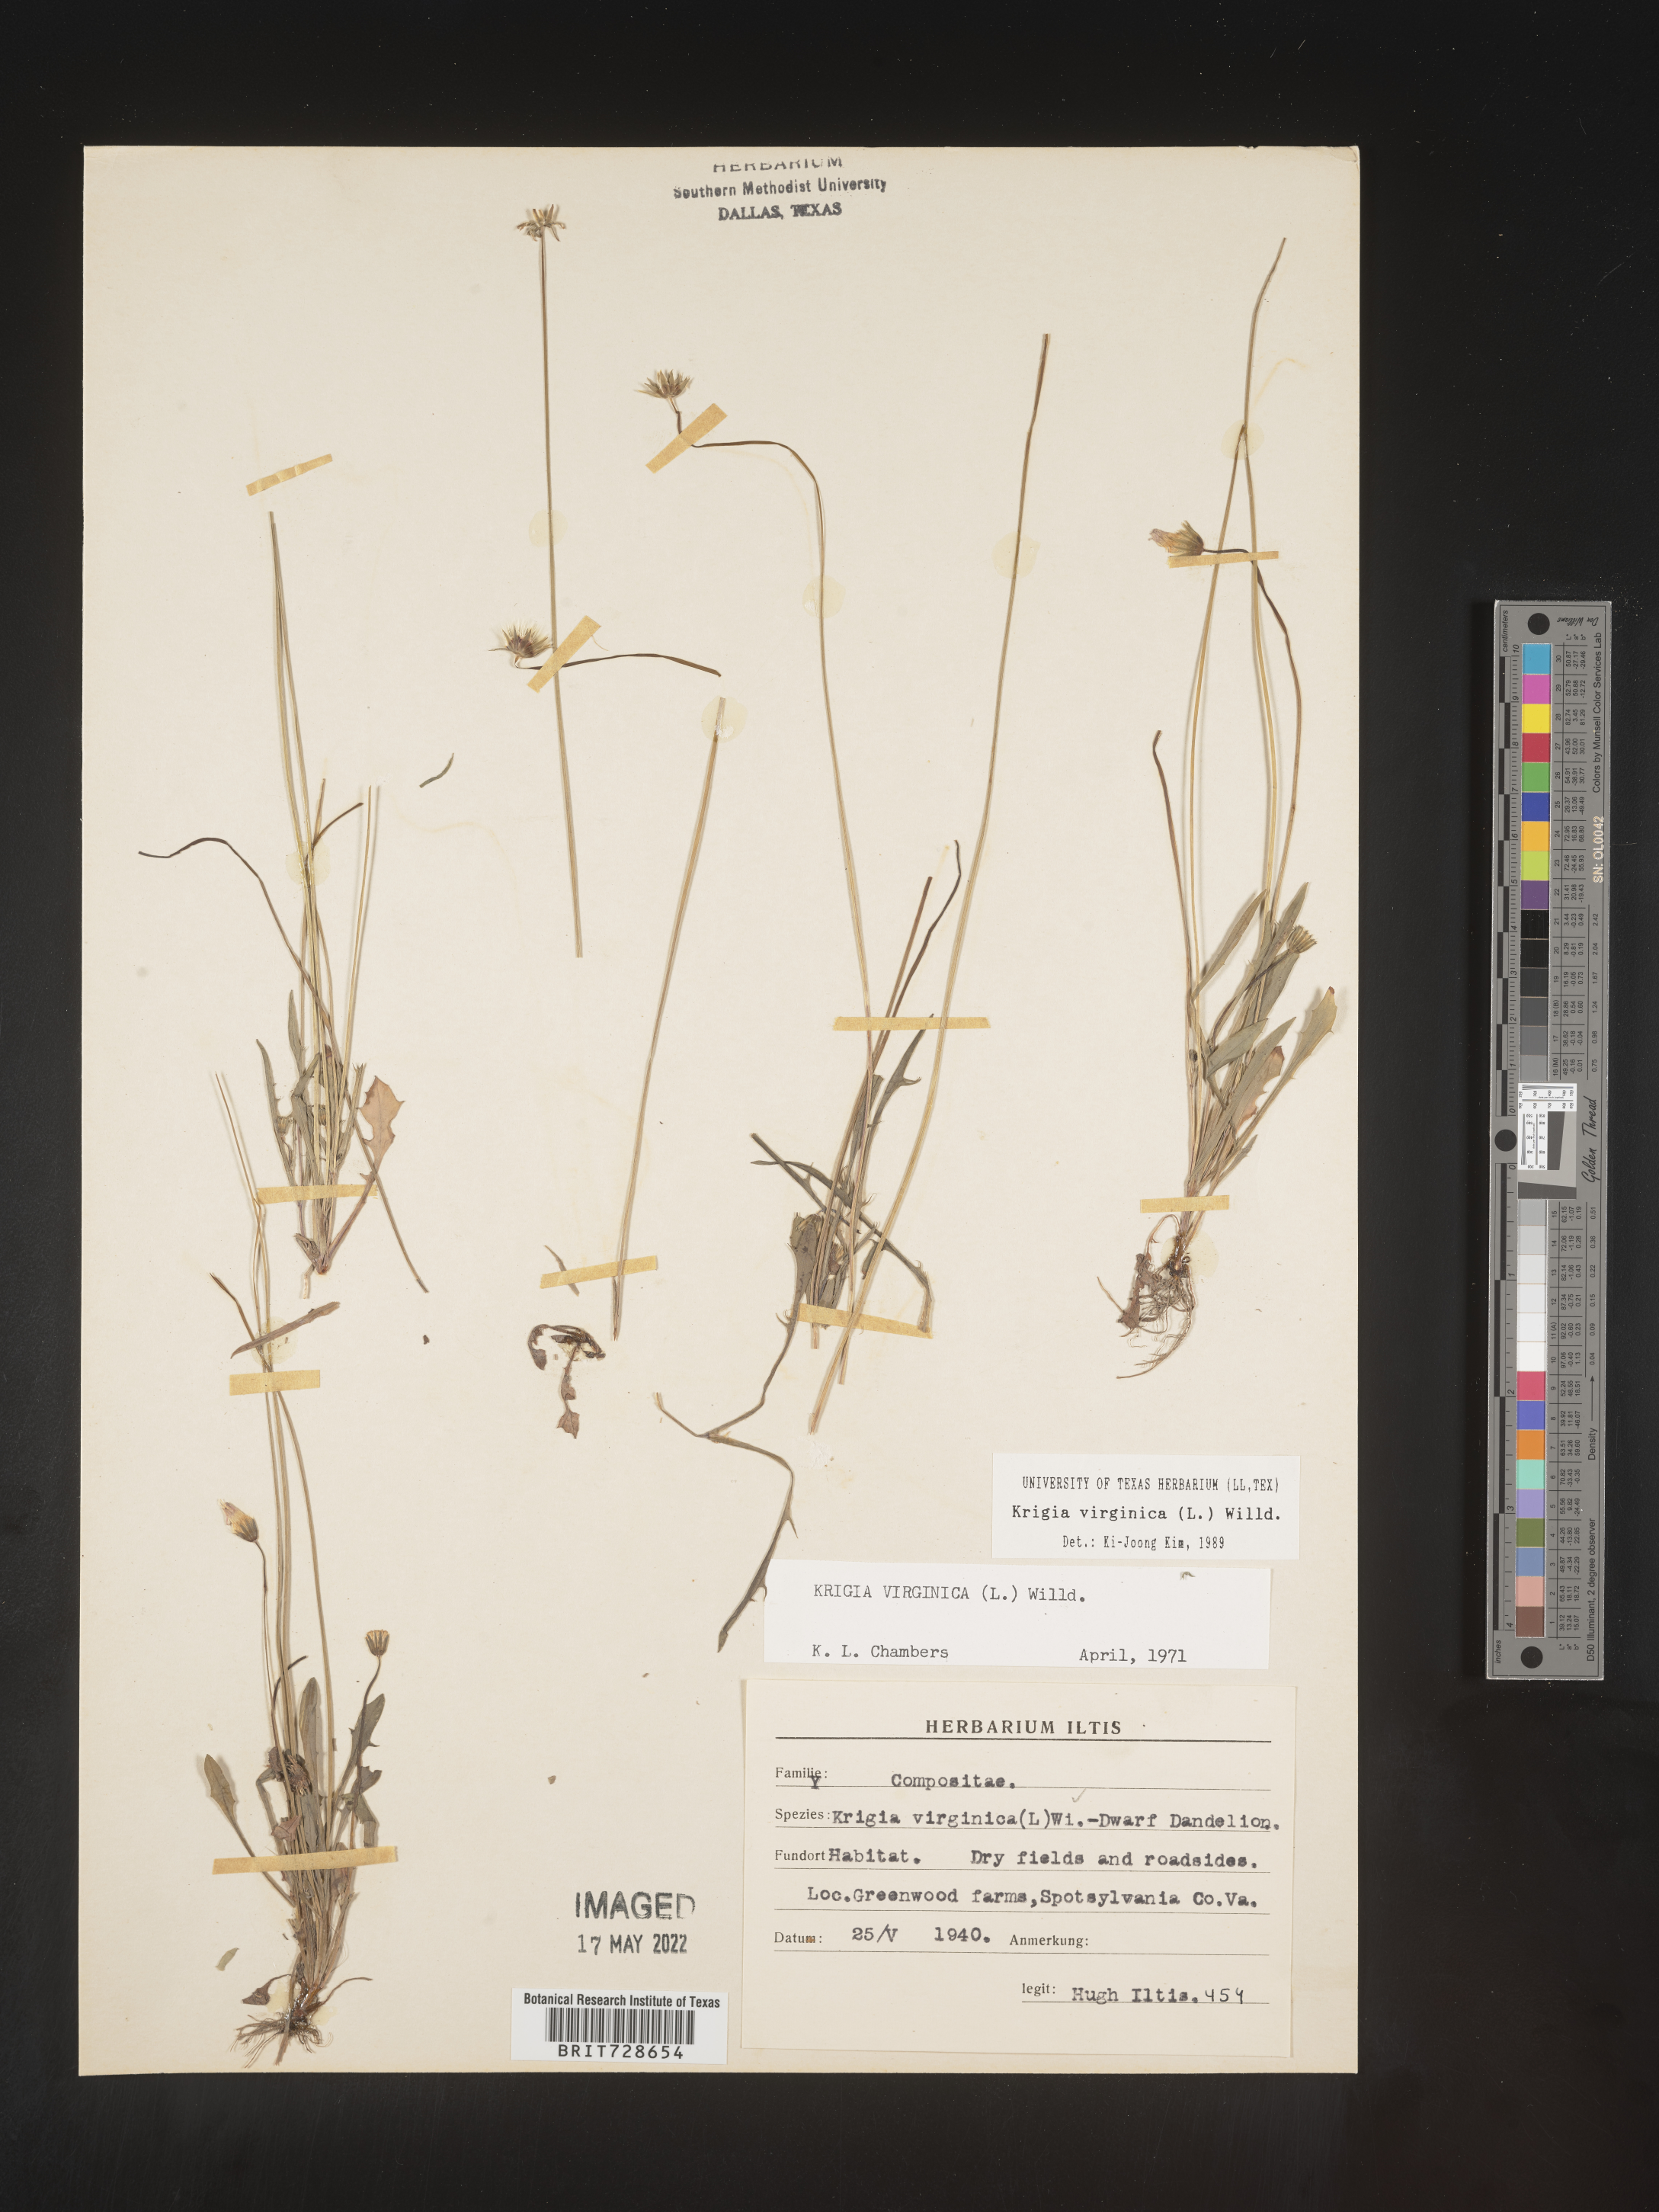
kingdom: Plantae
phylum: Tracheophyta
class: Magnoliopsida
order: Asterales
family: Asteraceae
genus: Krigia
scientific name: Krigia virginica
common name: Virginia dwarf-dandelion
